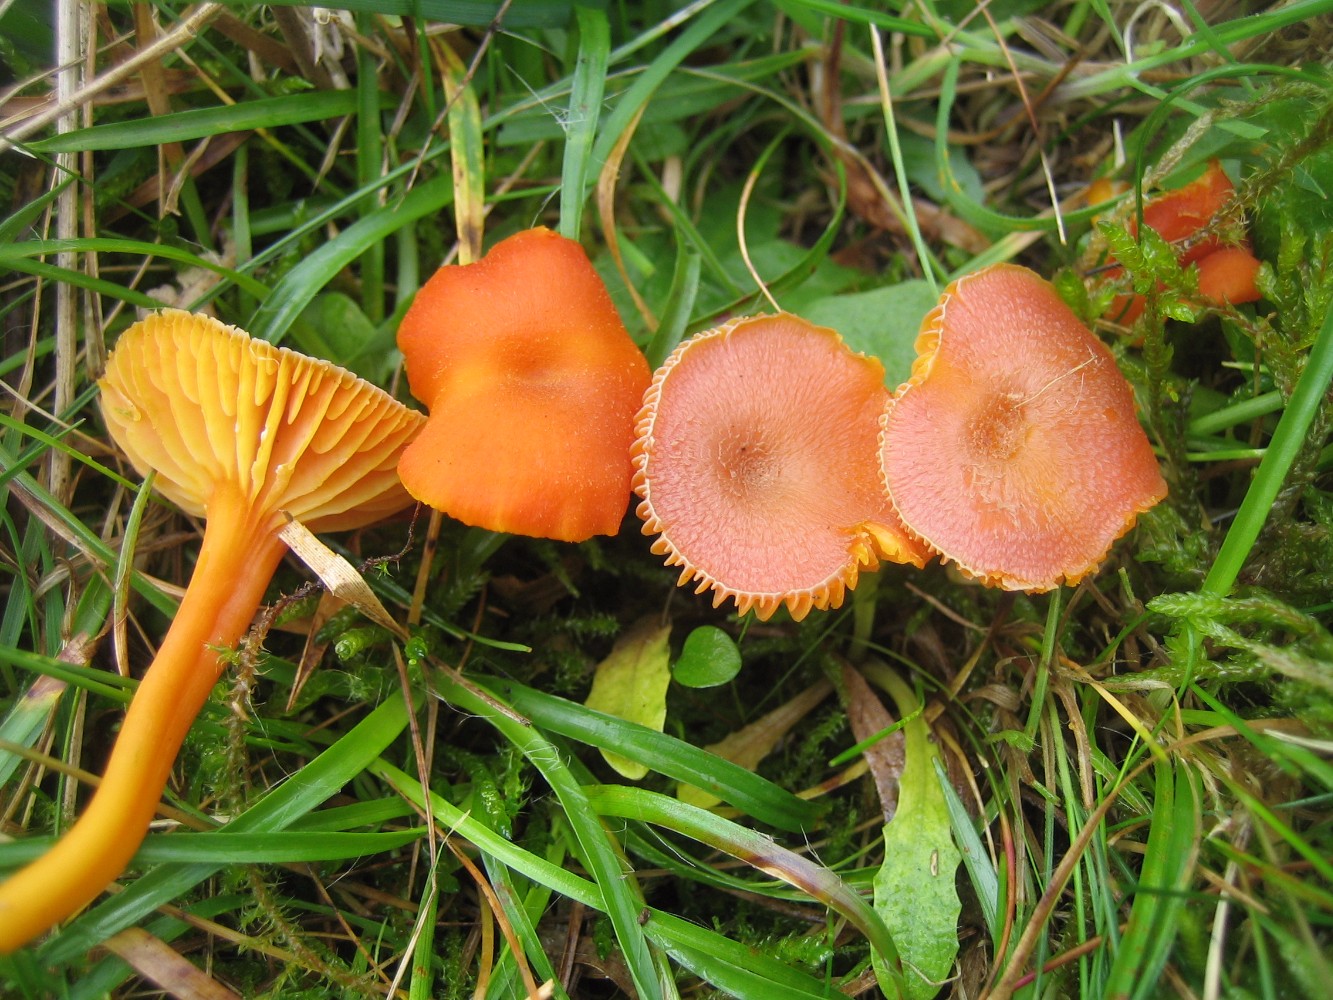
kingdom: Fungi
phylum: Basidiomycota
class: Agaricomycetes
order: Agaricales
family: Hygrophoraceae
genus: Hygrocybe
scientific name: Hygrocybe miniata
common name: mønje-vokshat
